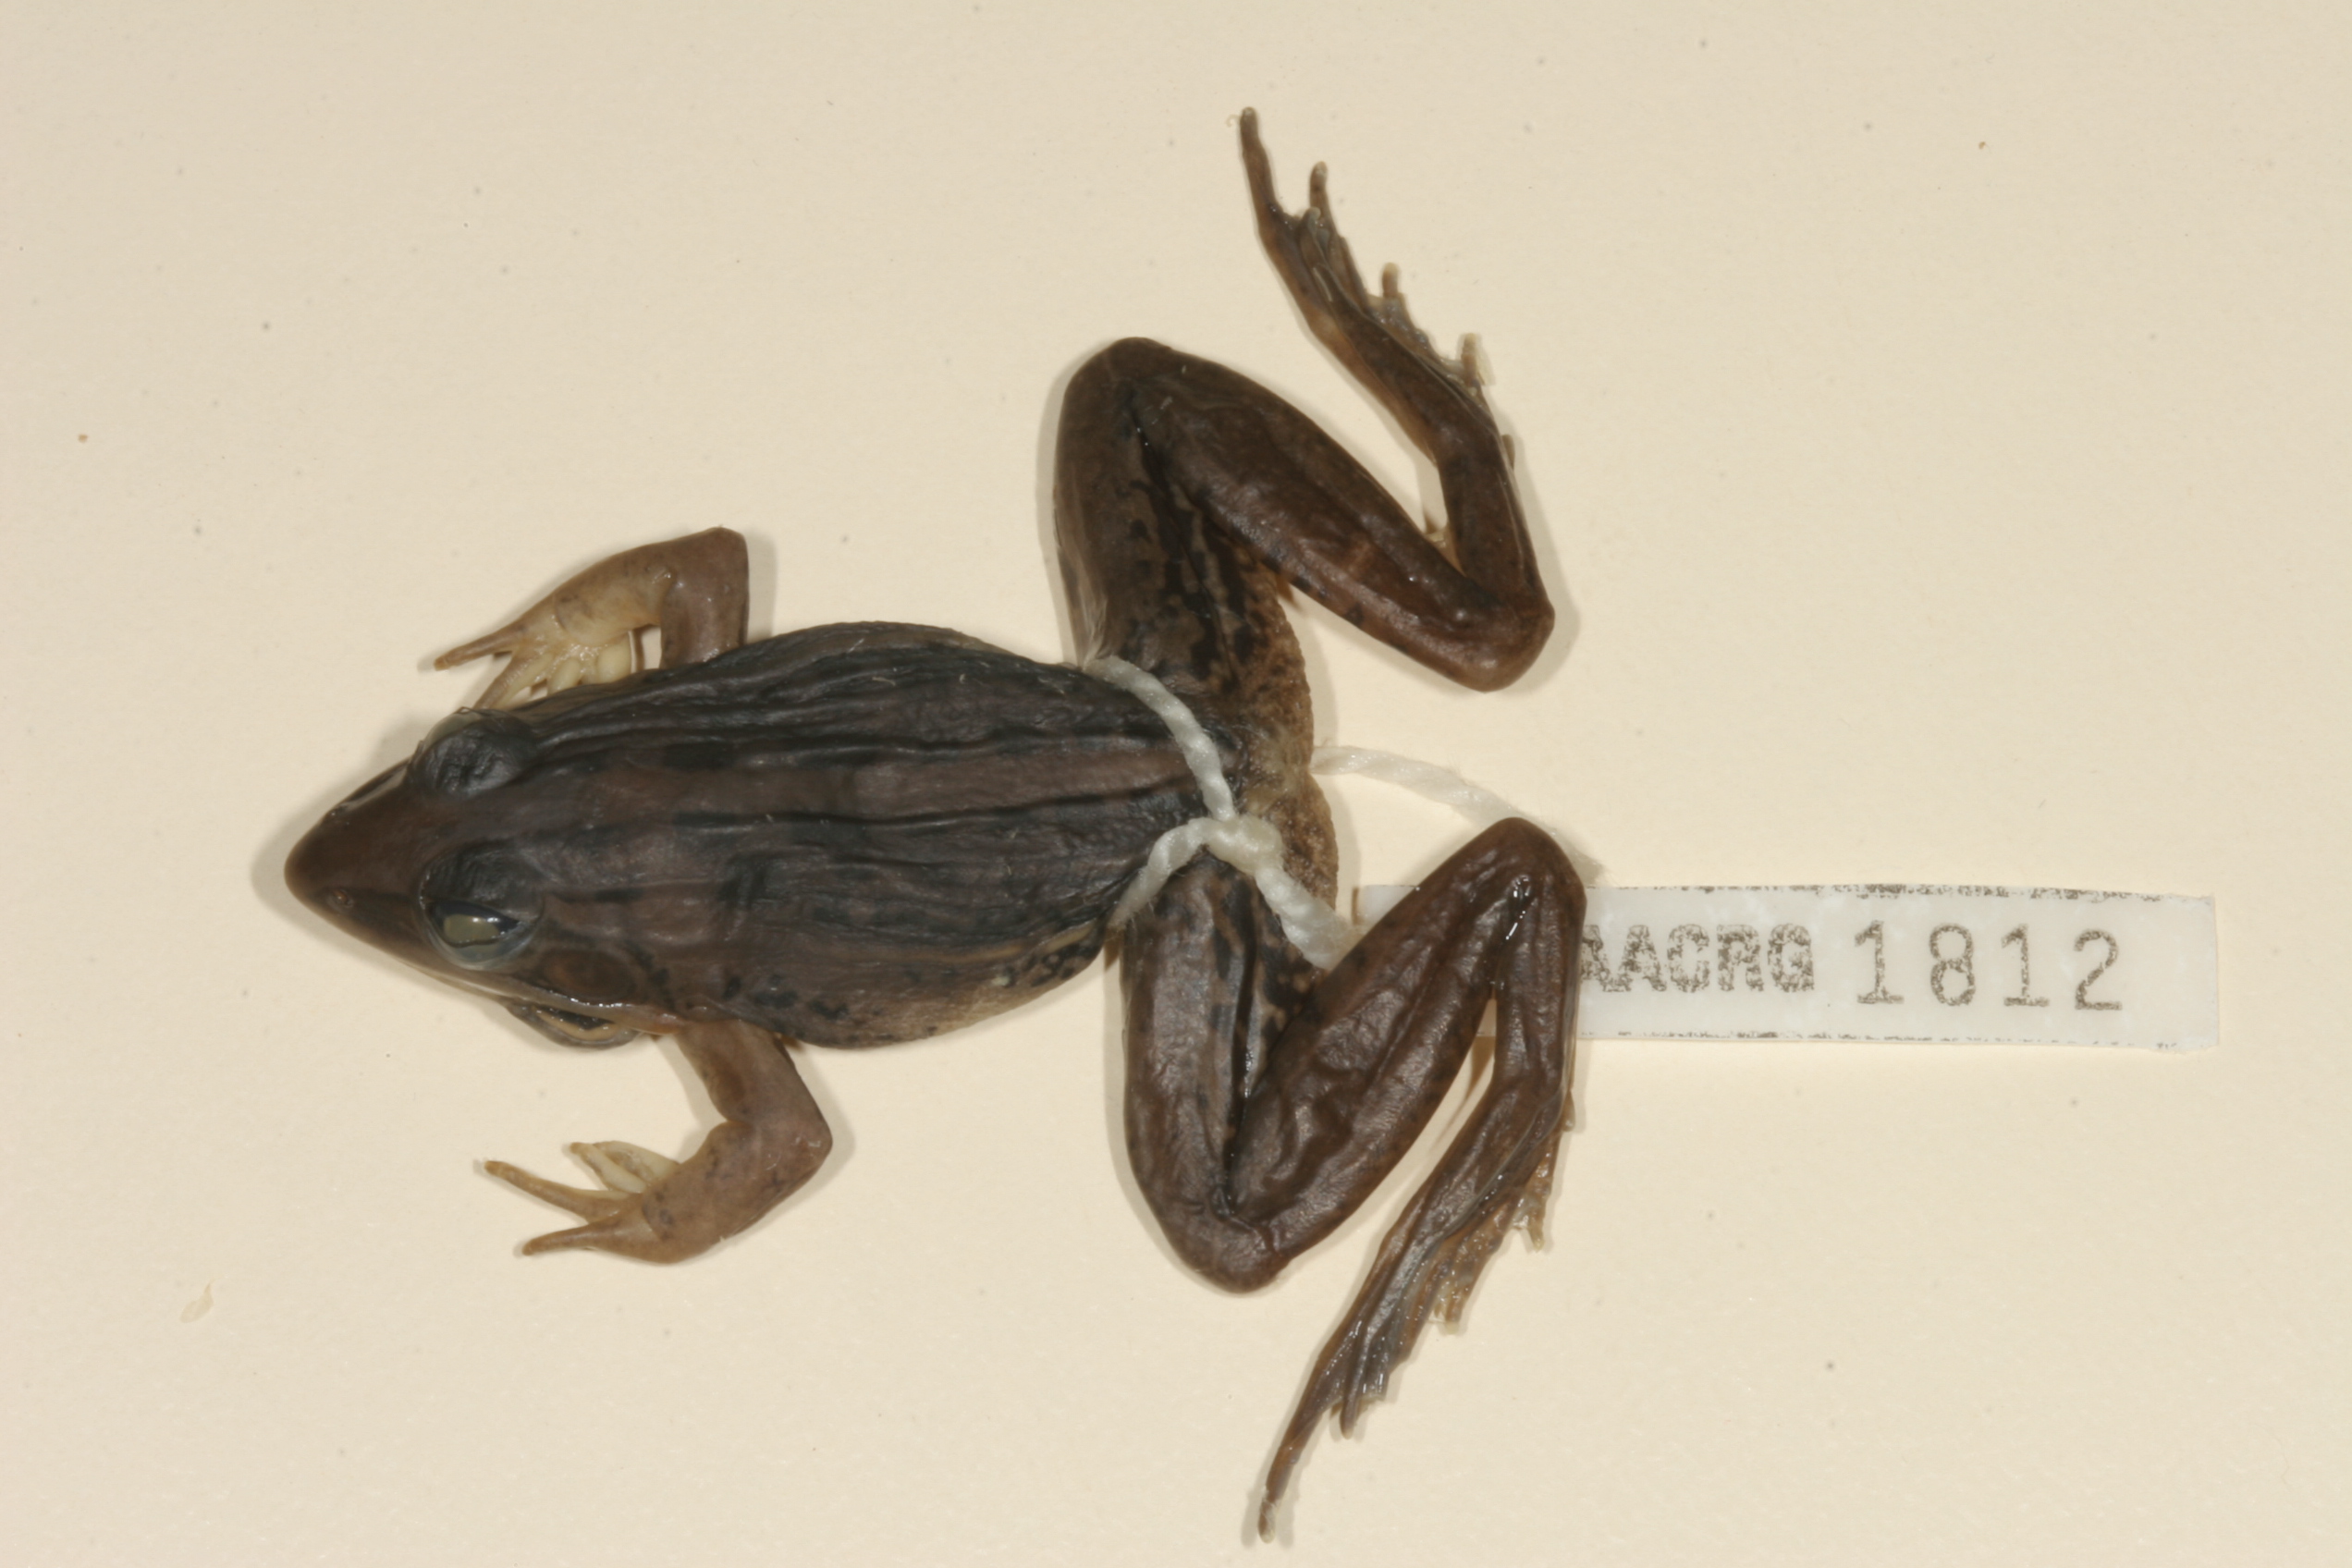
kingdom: Animalia
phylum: Chordata
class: Amphibia
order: Anura
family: Ptychadenidae
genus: Ptychadena
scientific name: Ptychadena mascareniensis
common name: Mascarene grass frog
